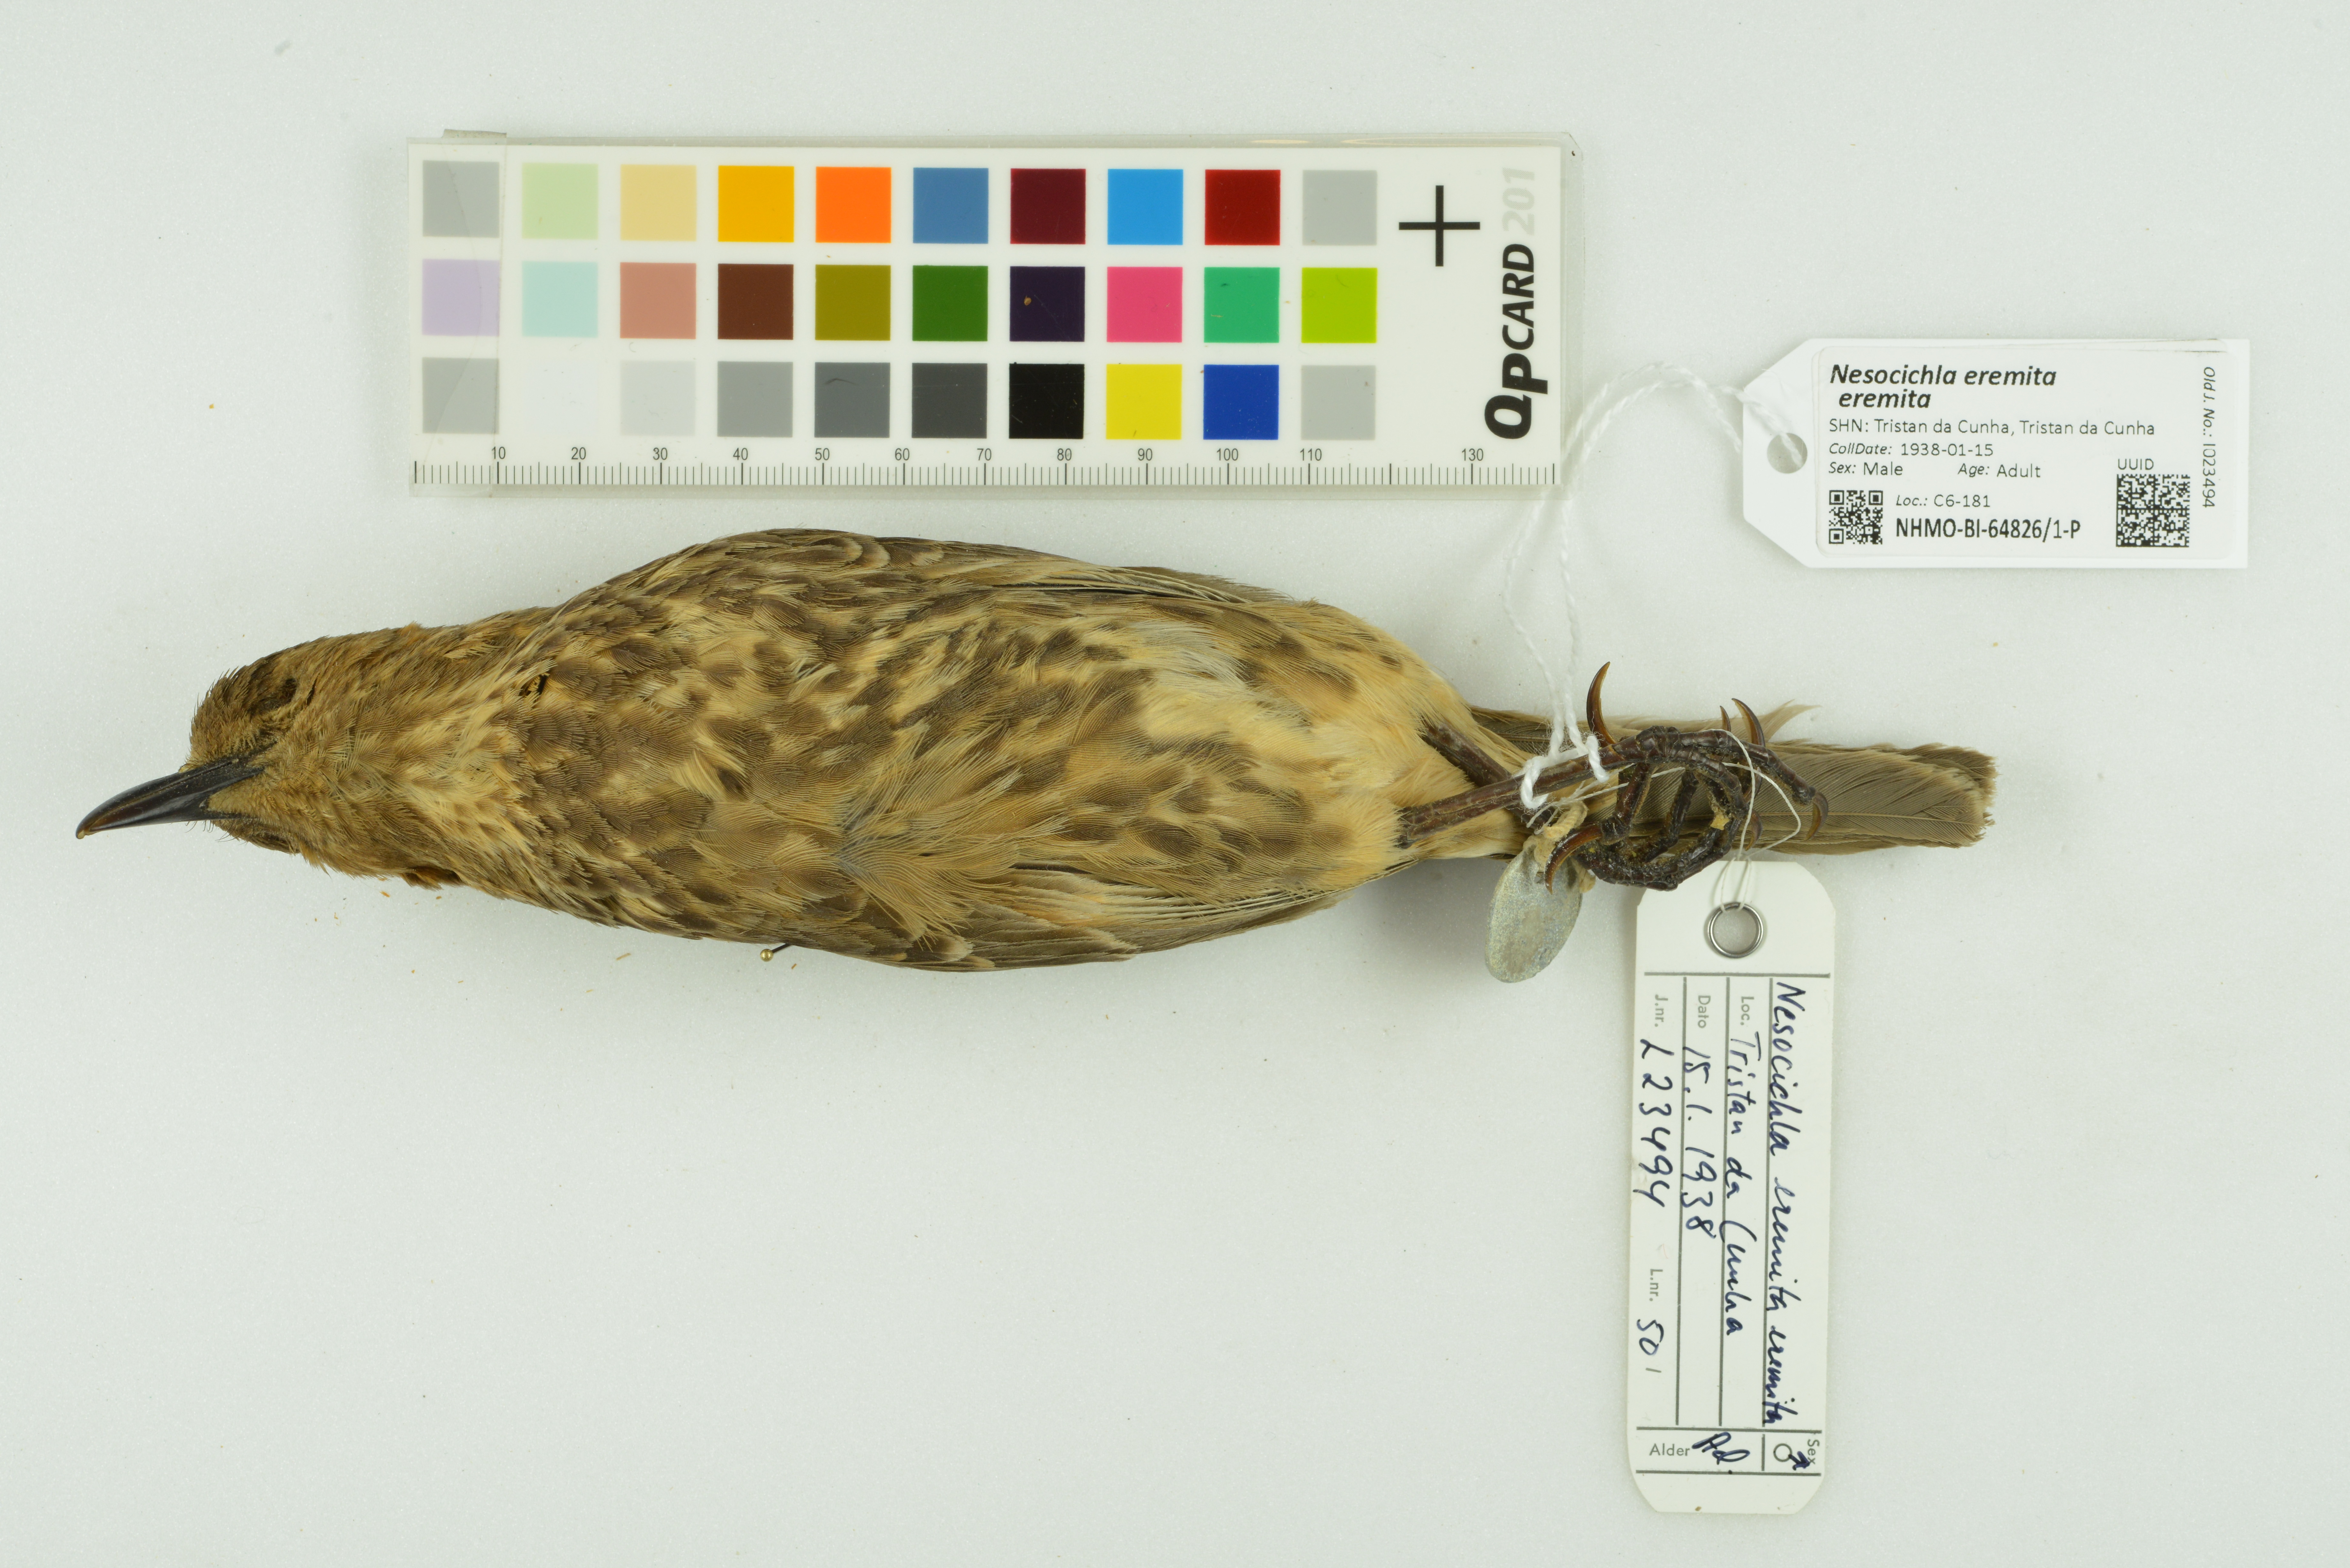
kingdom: Animalia
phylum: Chordata
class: Aves
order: Passeriformes
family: Turdidae
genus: Nesocichla
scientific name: Nesocichla eremita
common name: Tristan thrush
